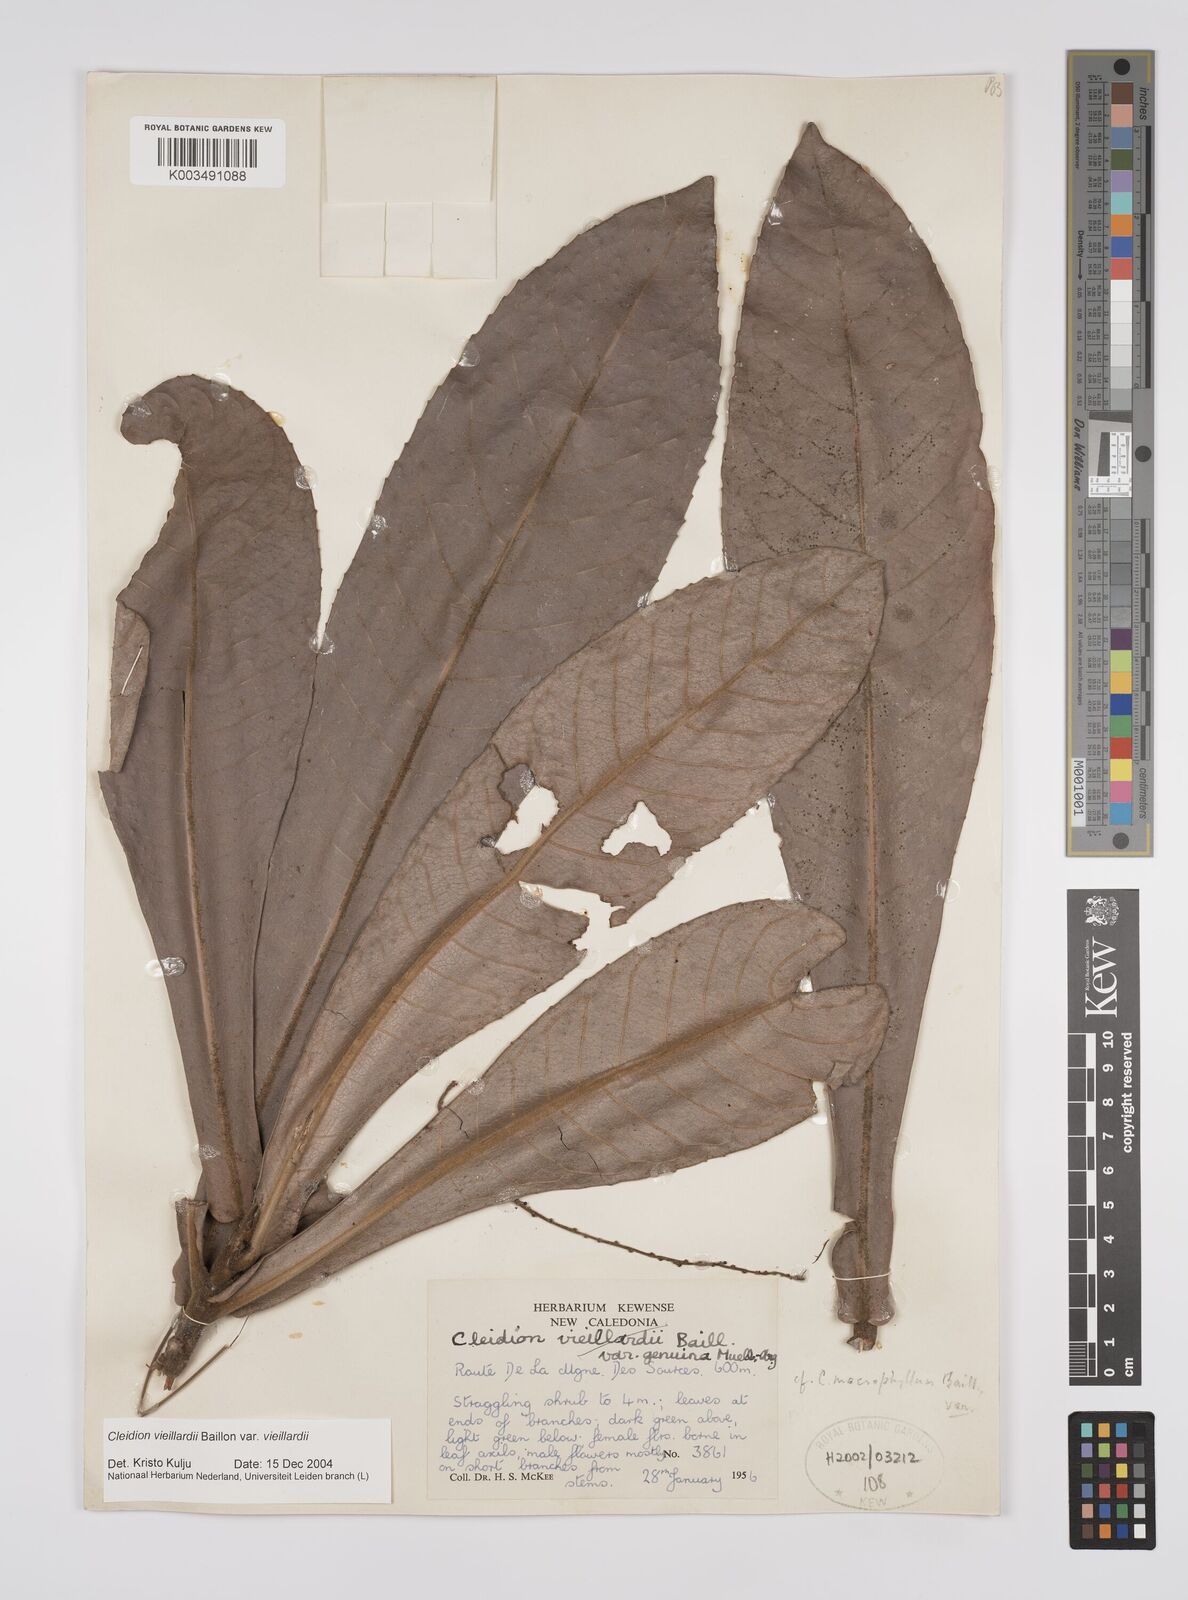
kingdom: Plantae
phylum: Tracheophyta
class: Magnoliopsida
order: Malpighiales
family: Euphorbiaceae
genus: Cleidion
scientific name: Cleidion vieillardii
